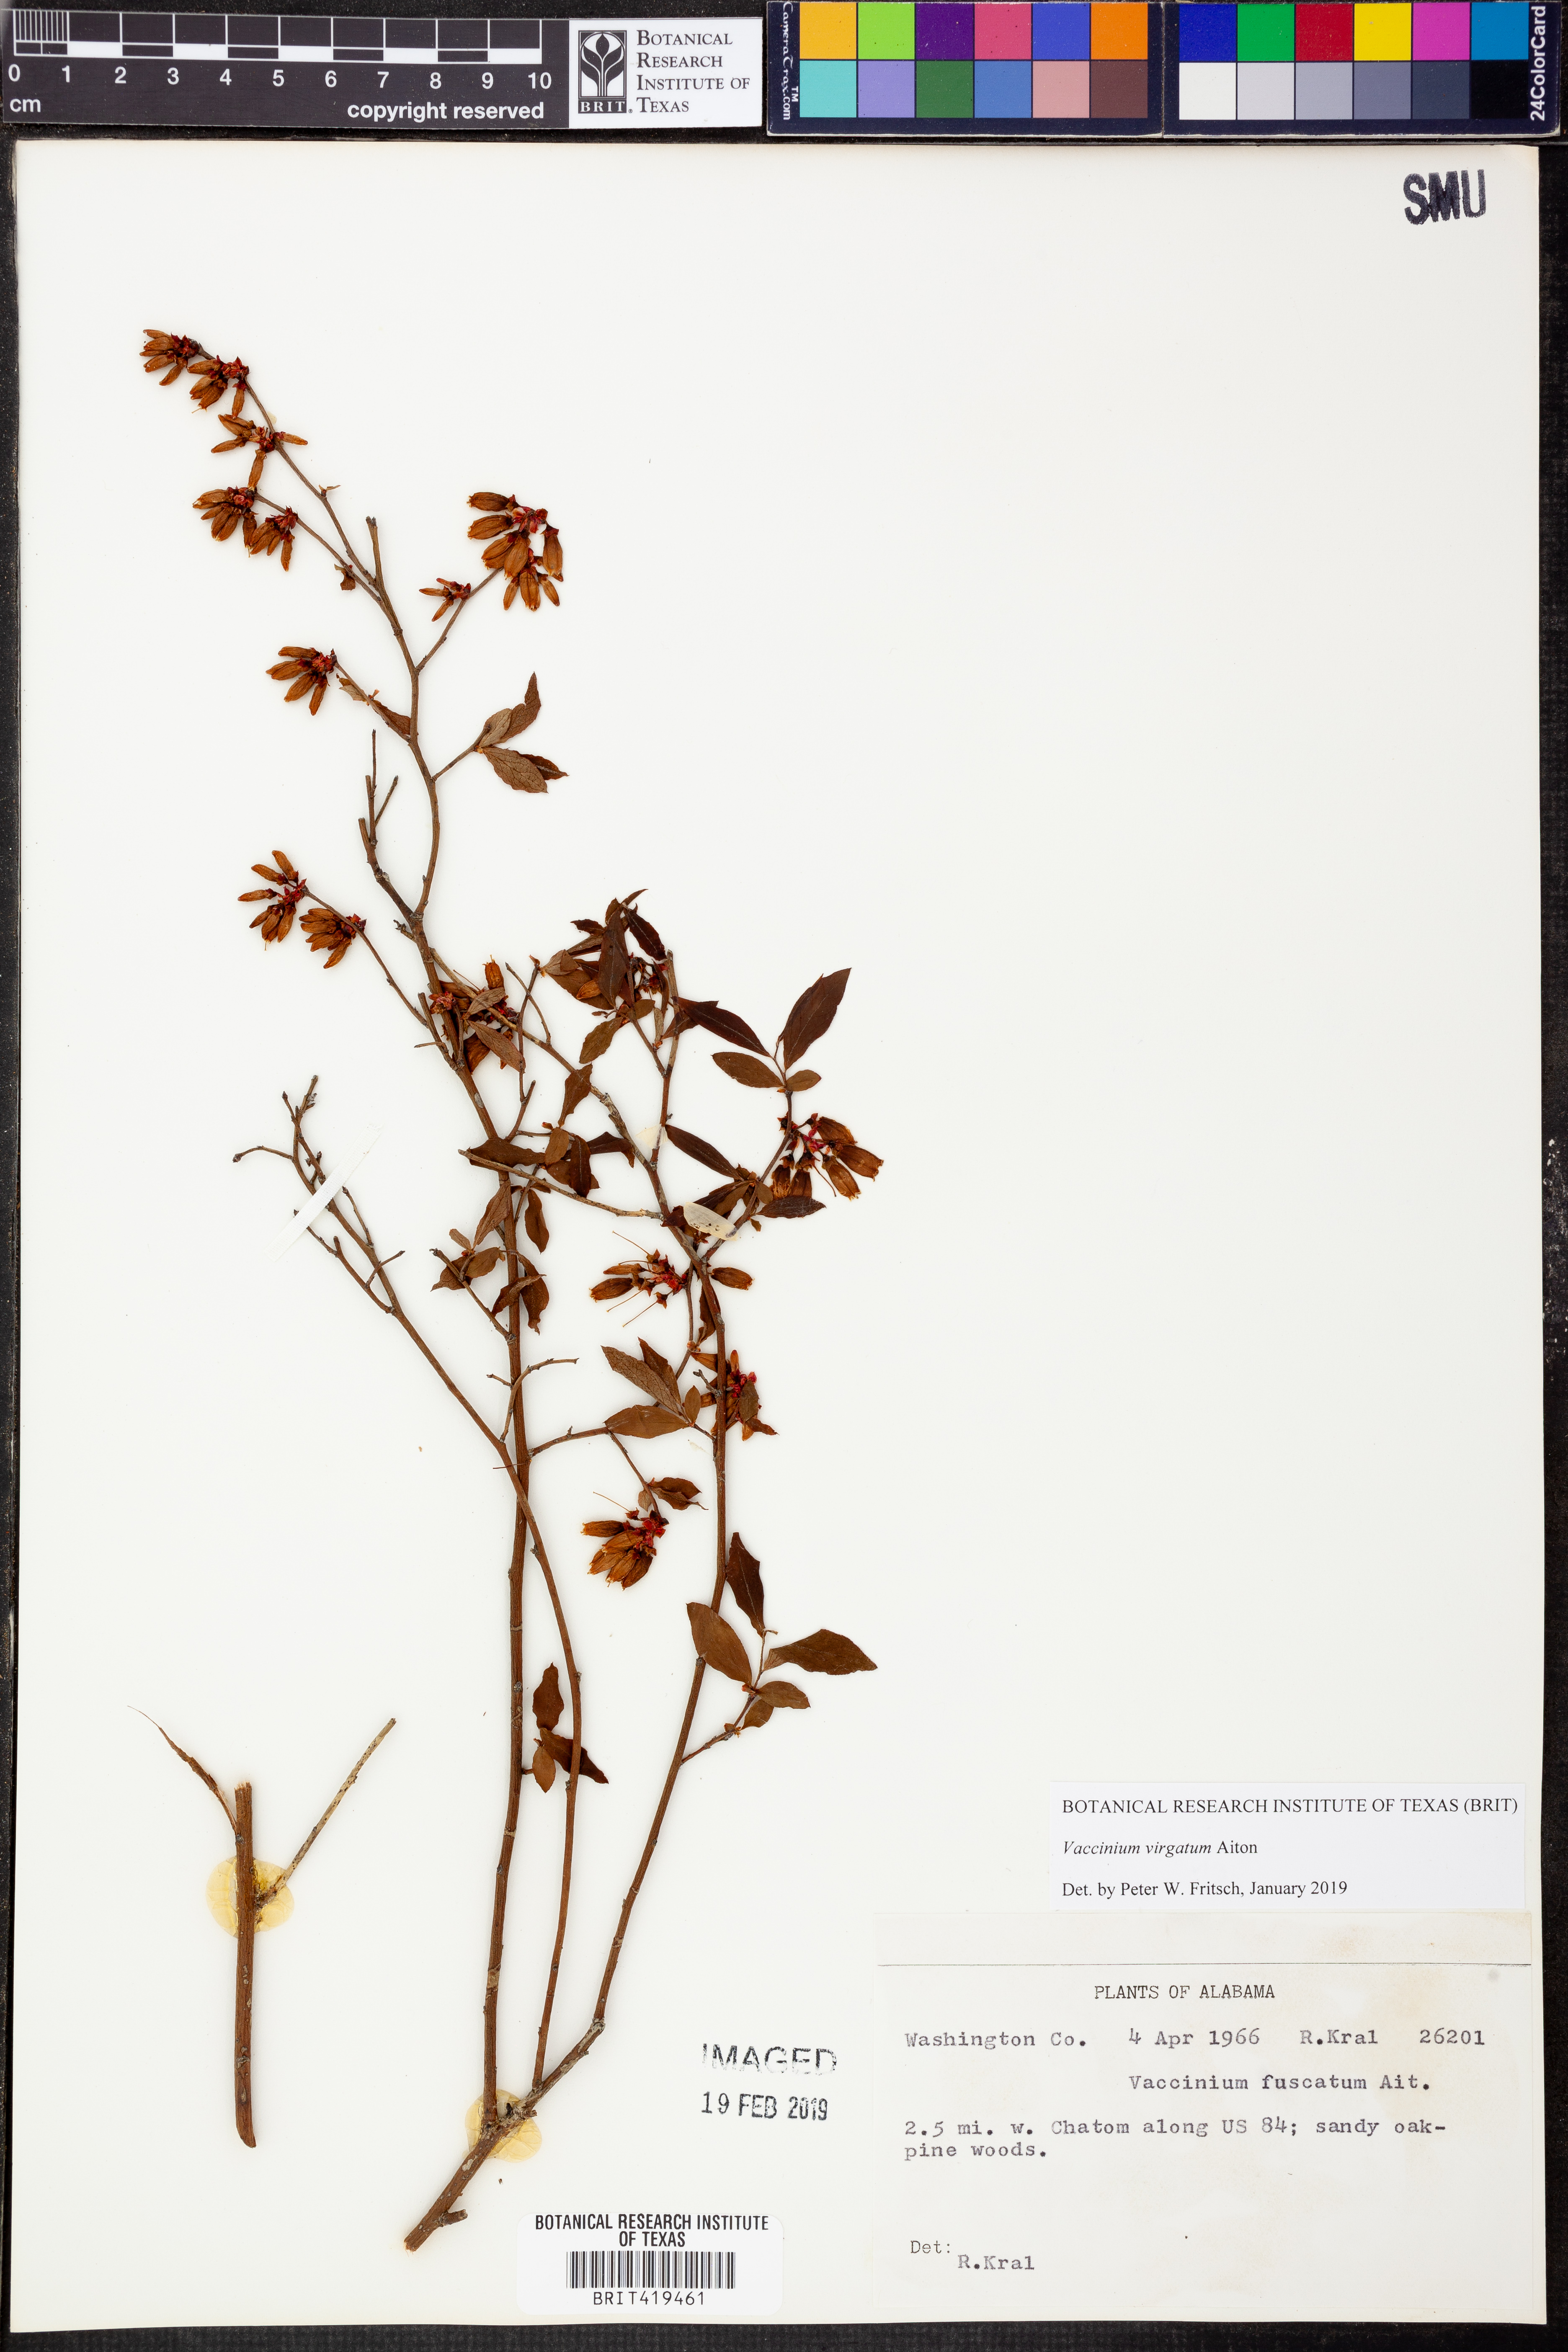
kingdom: Plantae
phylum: Tracheophyta
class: Magnoliopsida
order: Ericales
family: Ericaceae
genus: Vaccinium
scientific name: Vaccinium corymbosum
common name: Blueberry
